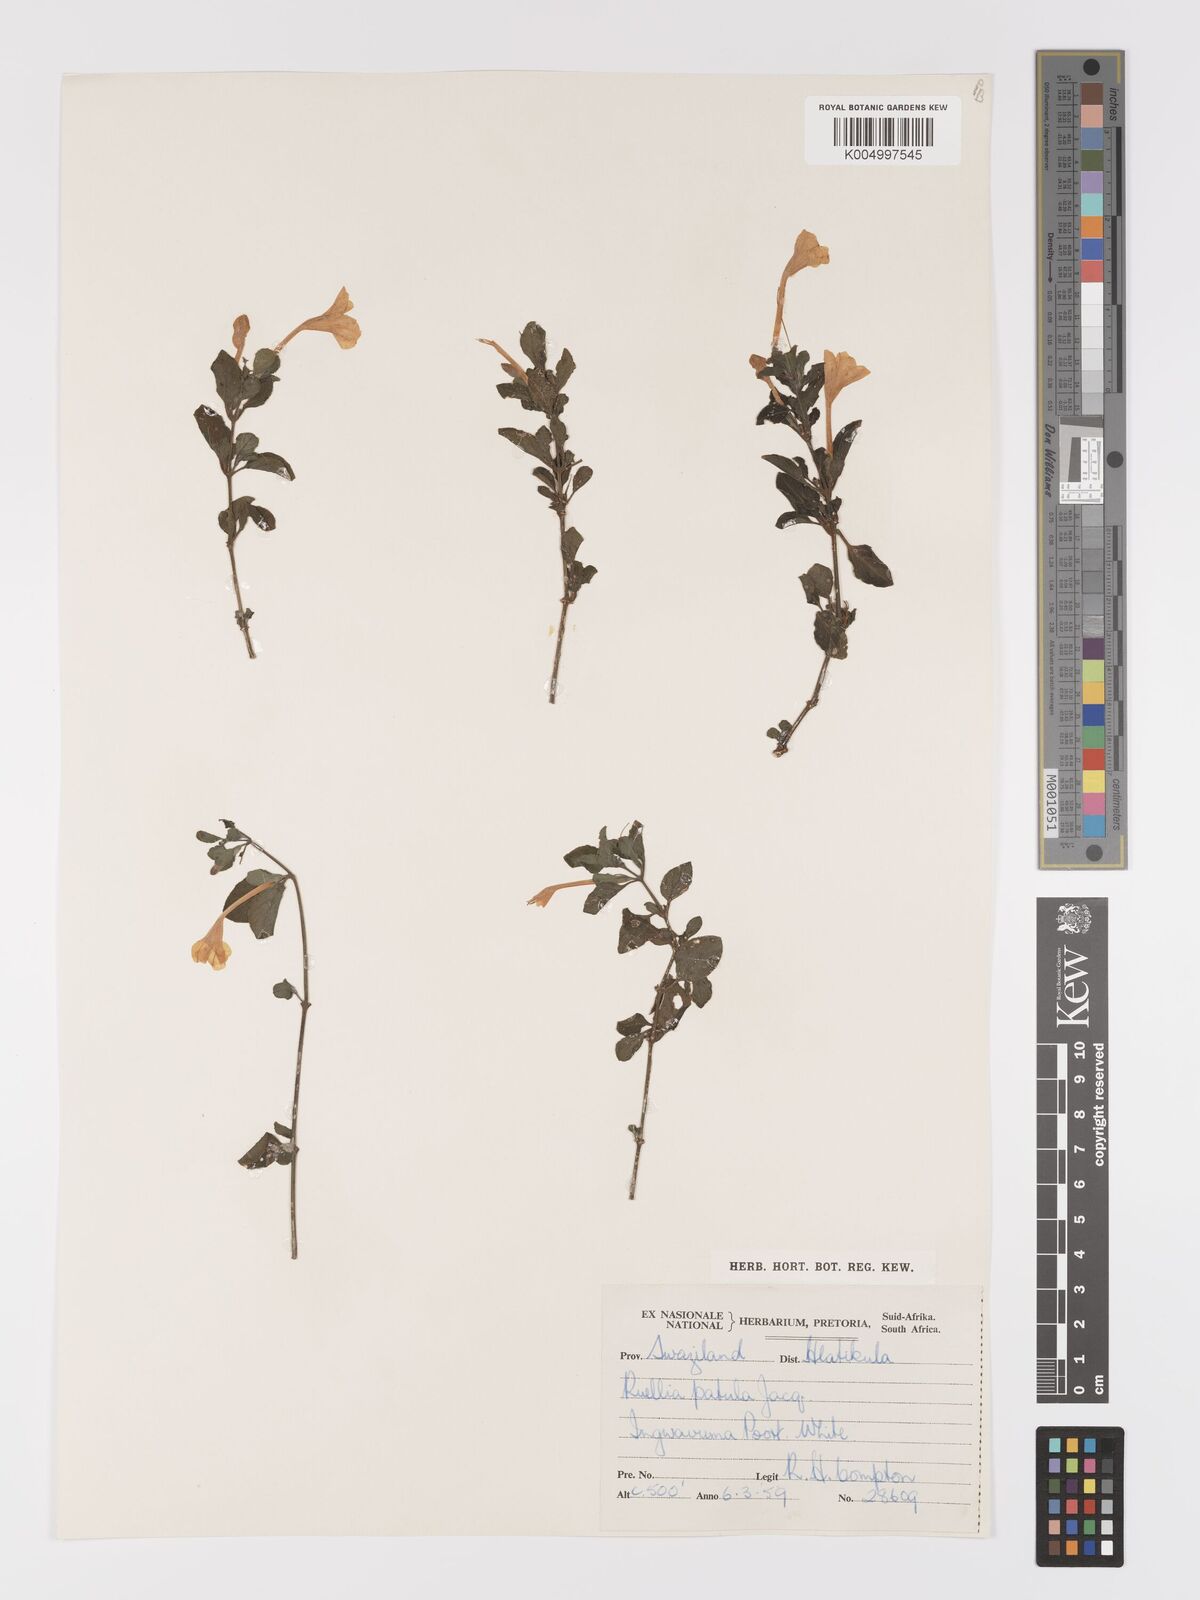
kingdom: Plantae
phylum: Tracheophyta
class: Magnoliopsida
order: Lamiales
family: Acanthaceae
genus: Ruellia
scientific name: Ruellia patula
